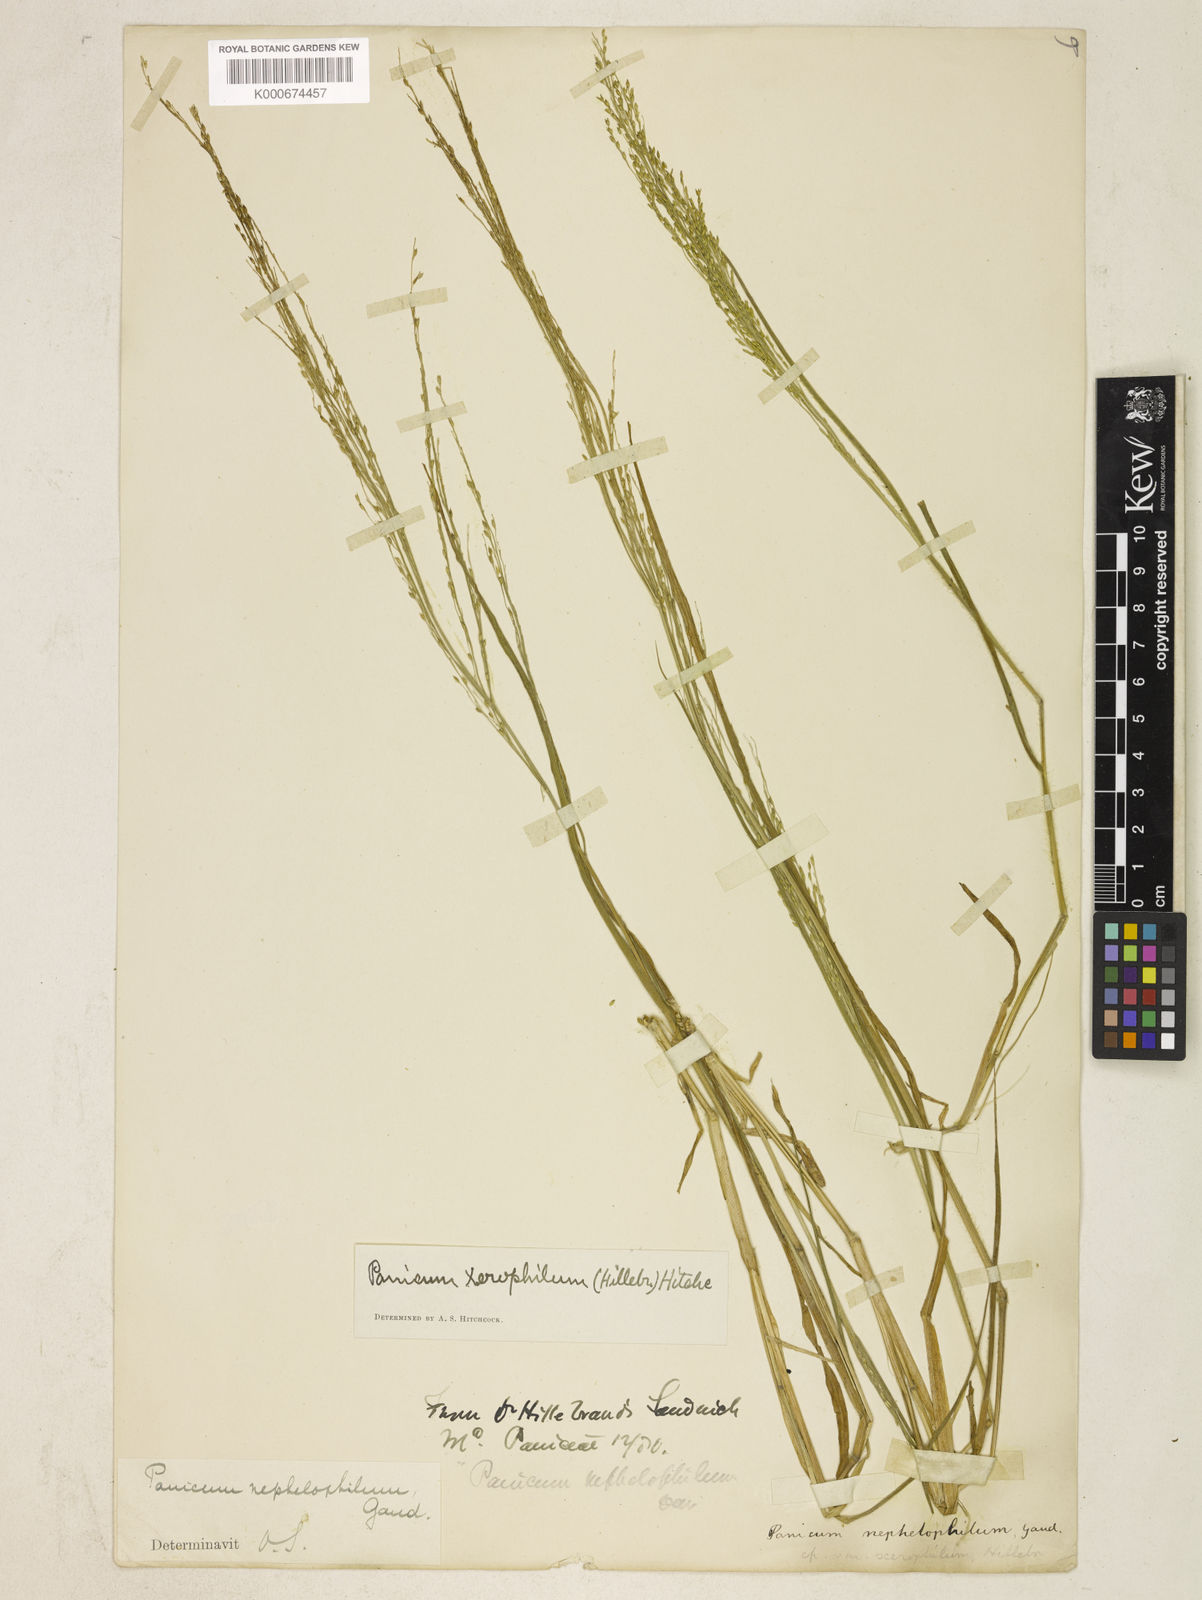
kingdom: Plantae
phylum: Tracheophyta
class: Liliopsida
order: Poales
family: Poaceae
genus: Panicum
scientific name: Panicum xerophilum
